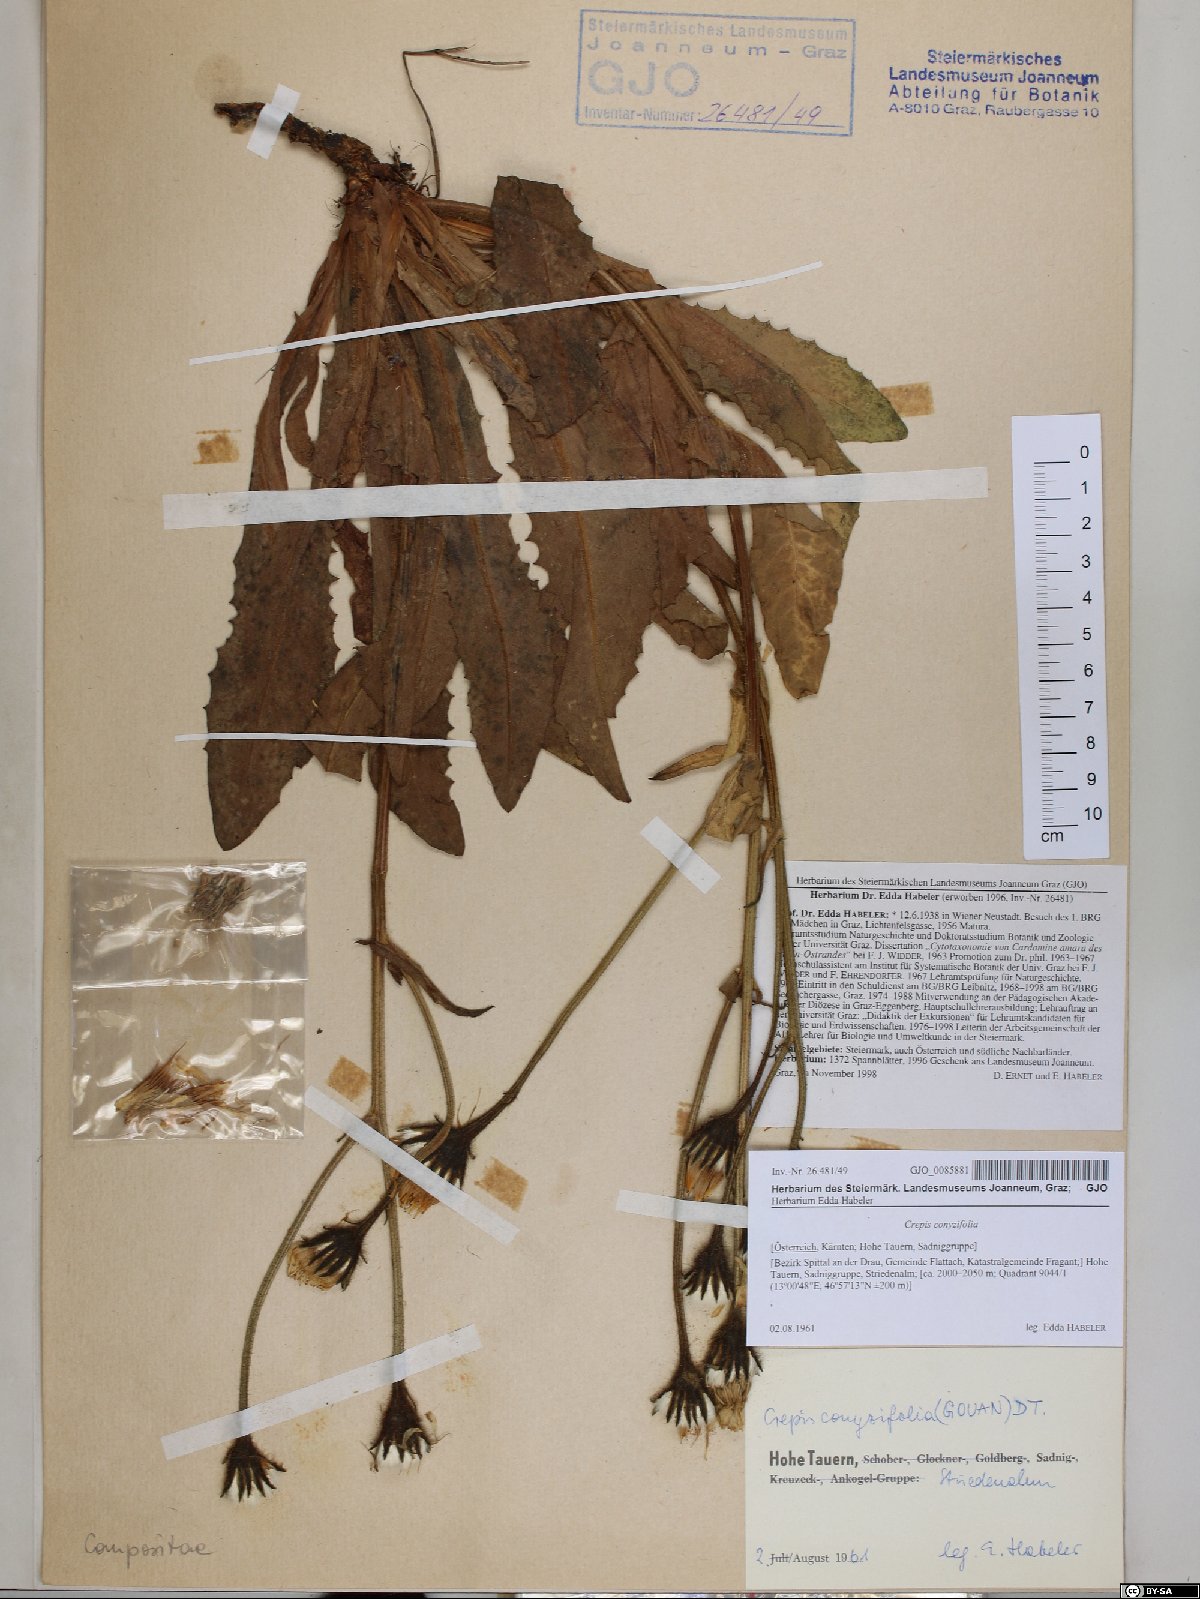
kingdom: Plantae
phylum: Tracheophyta
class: Magnoliopsida
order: Asterales
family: Asteraceae
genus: Crepis
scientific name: Crepis blattarioides
